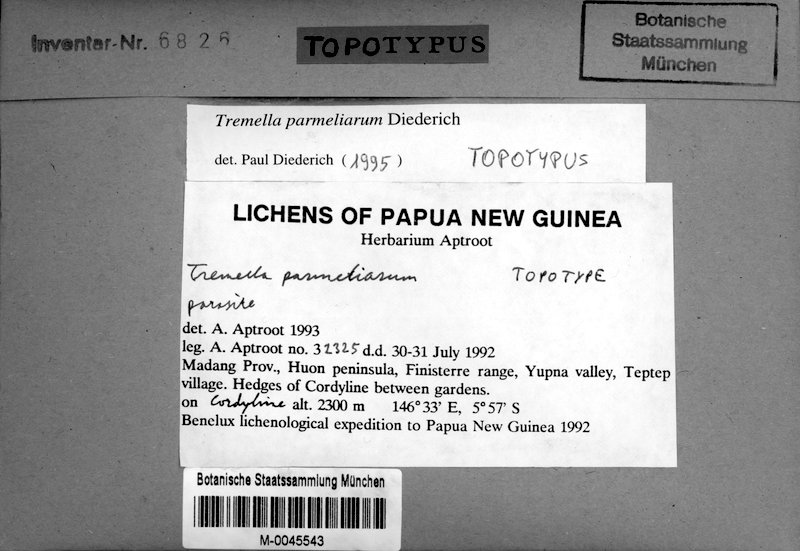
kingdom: Fungi
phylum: Basidiomycota
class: Tremellomycetes
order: Tremellales
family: Tremellaceae
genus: Tremella
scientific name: Tremella parmeliarum
